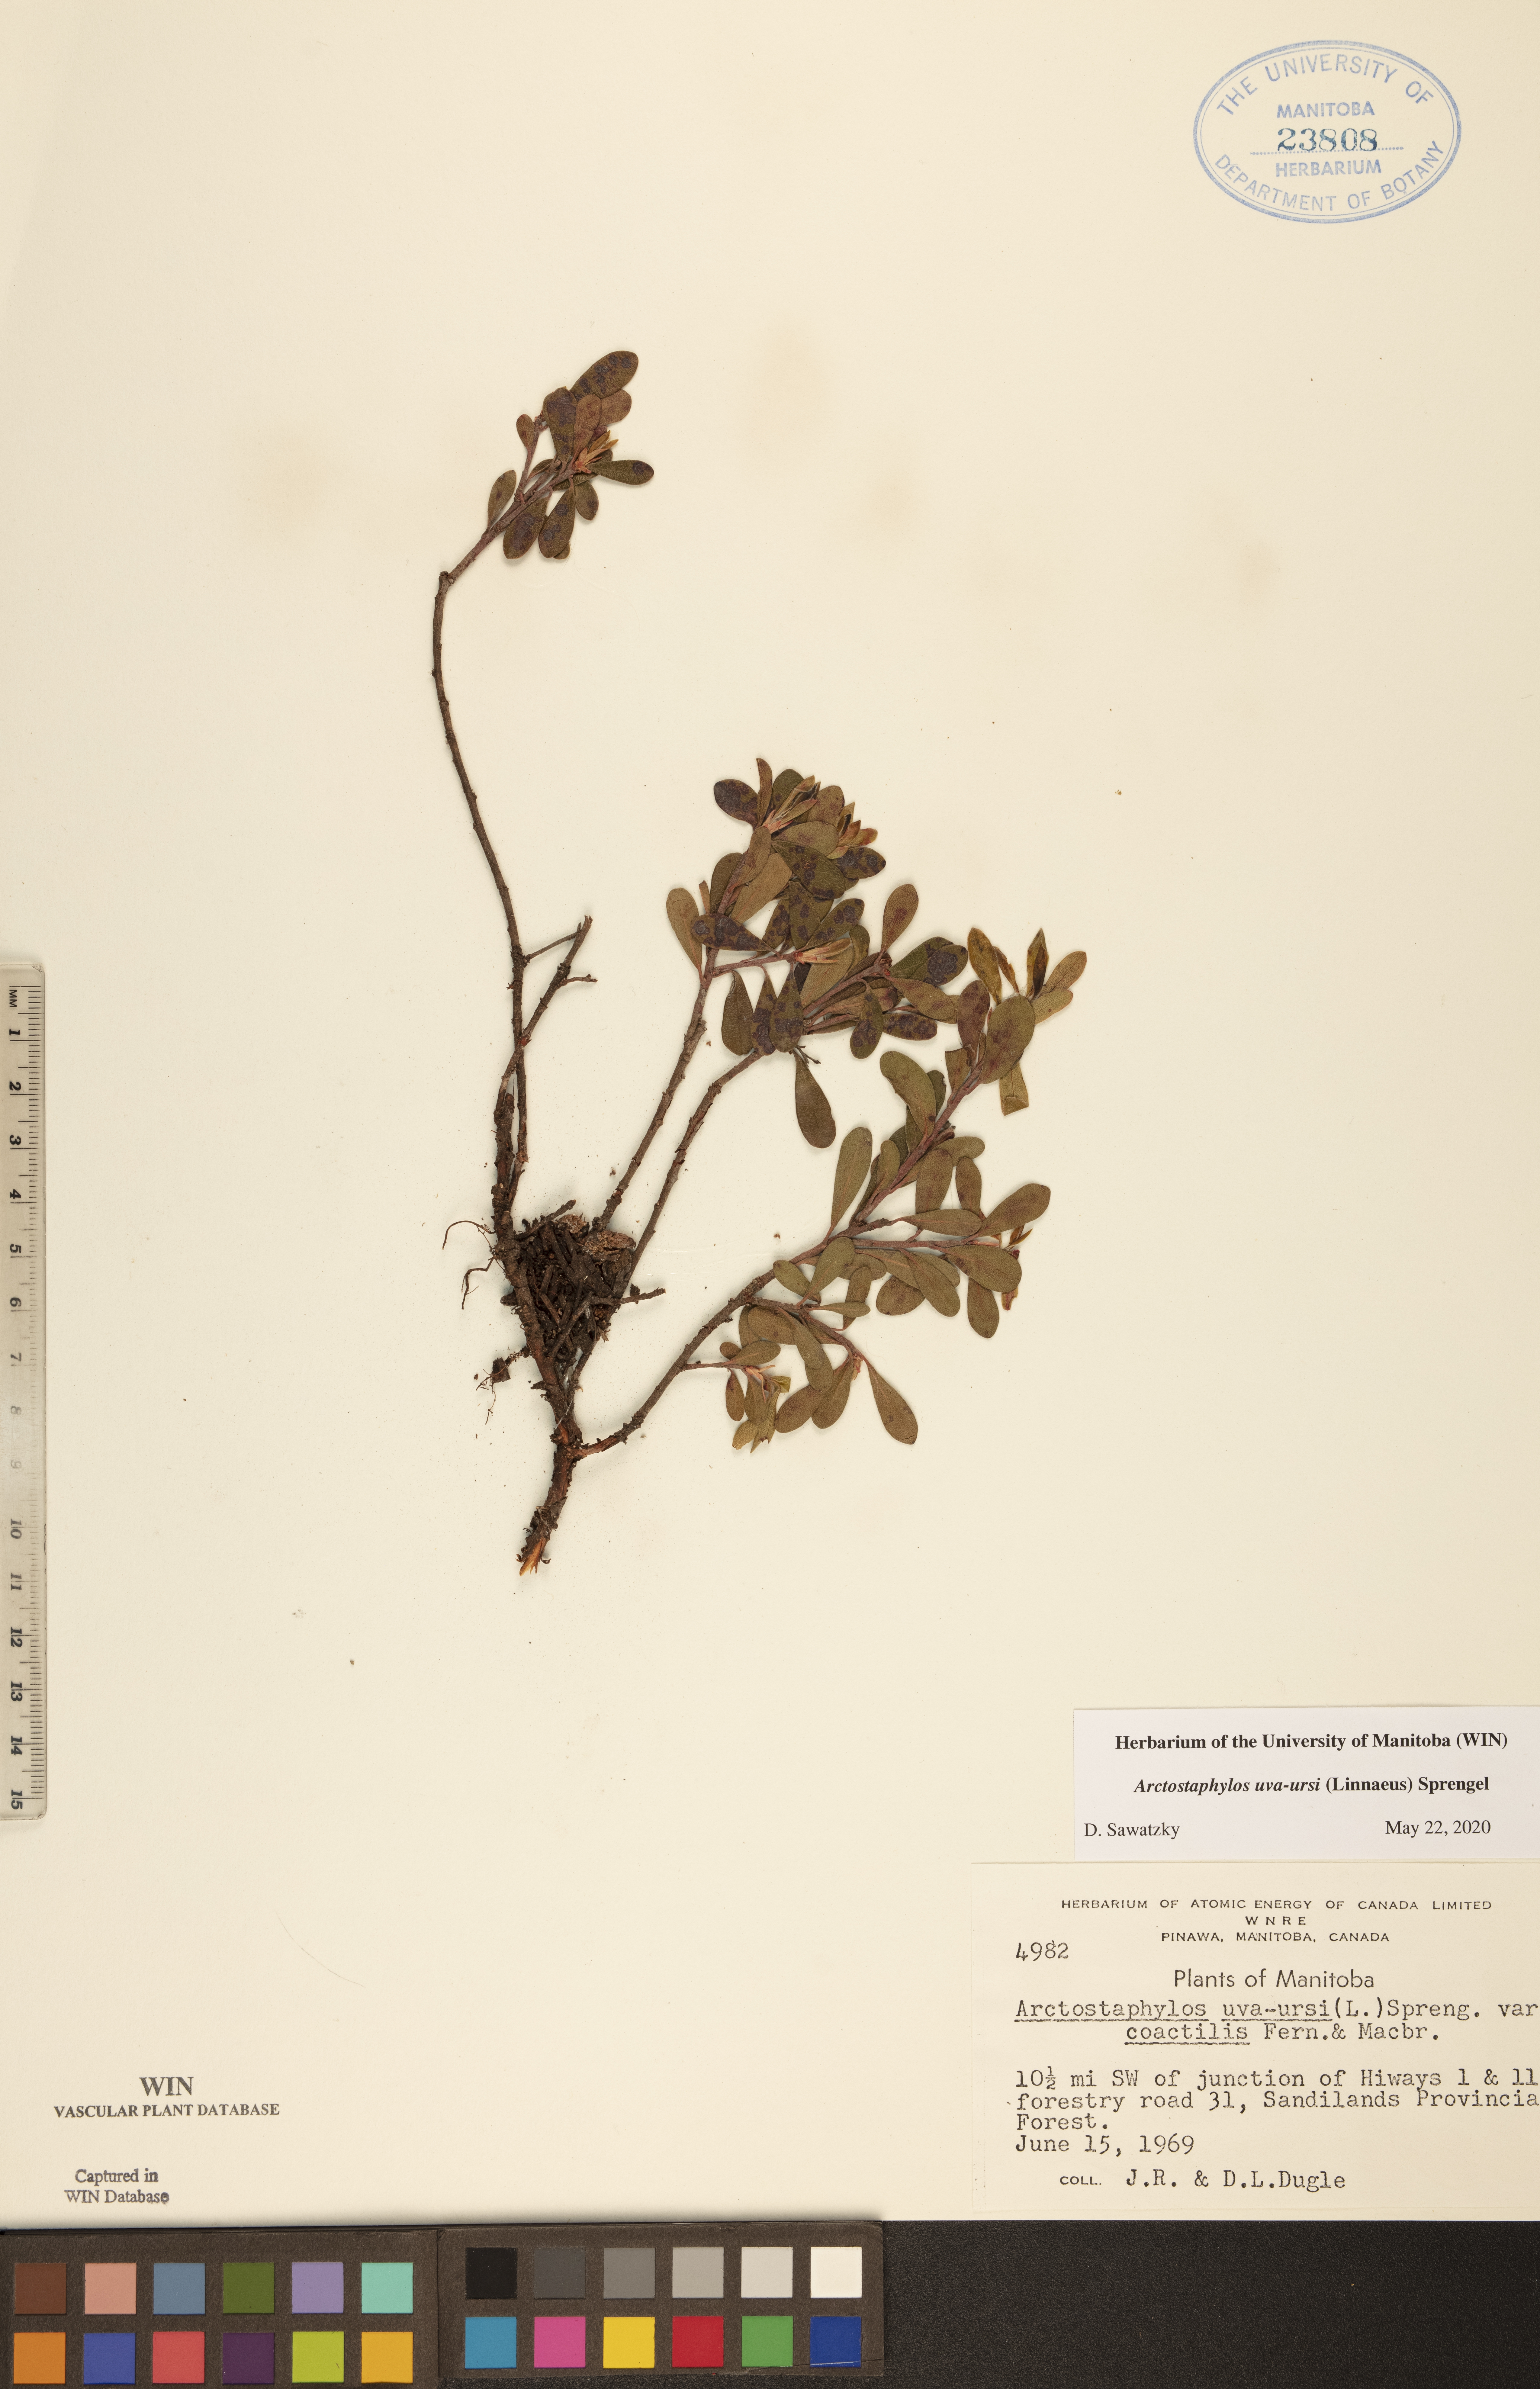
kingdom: Plantae
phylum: Tracheophyta
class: Magnoliopsida
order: Ericales
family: Ericaceae
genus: Arctostaphylos
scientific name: Arctostaphylos uva-ursi
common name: Bearberry
